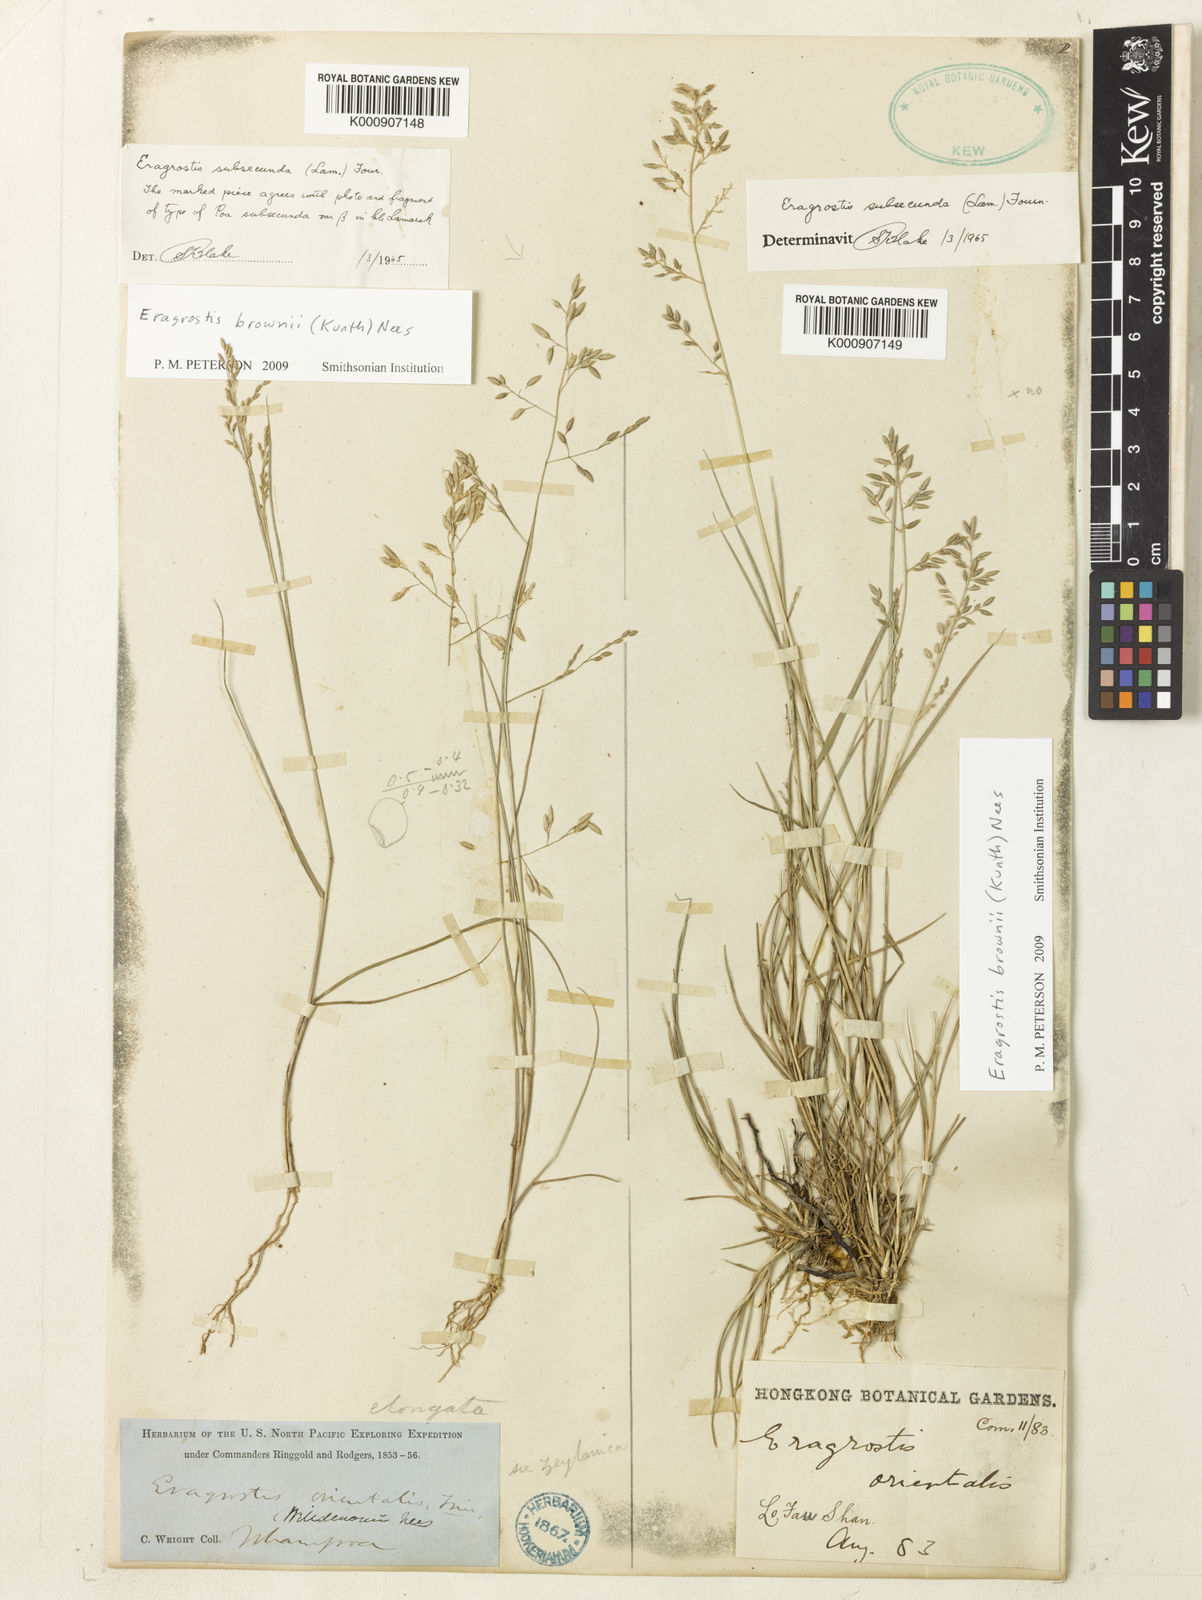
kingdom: Plantae
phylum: Tracheophyta
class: Liliopsida
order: Poales
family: Poaceae
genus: Eragrostis
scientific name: Eragrostis brownii
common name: Lovegrass
